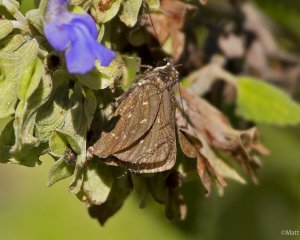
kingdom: Animalia
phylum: Arthropoda
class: Insecta
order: Lepidoptera
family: Hesperiidae
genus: Mastor
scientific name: Mastor celia
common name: Celia's Roadside-Skipper
